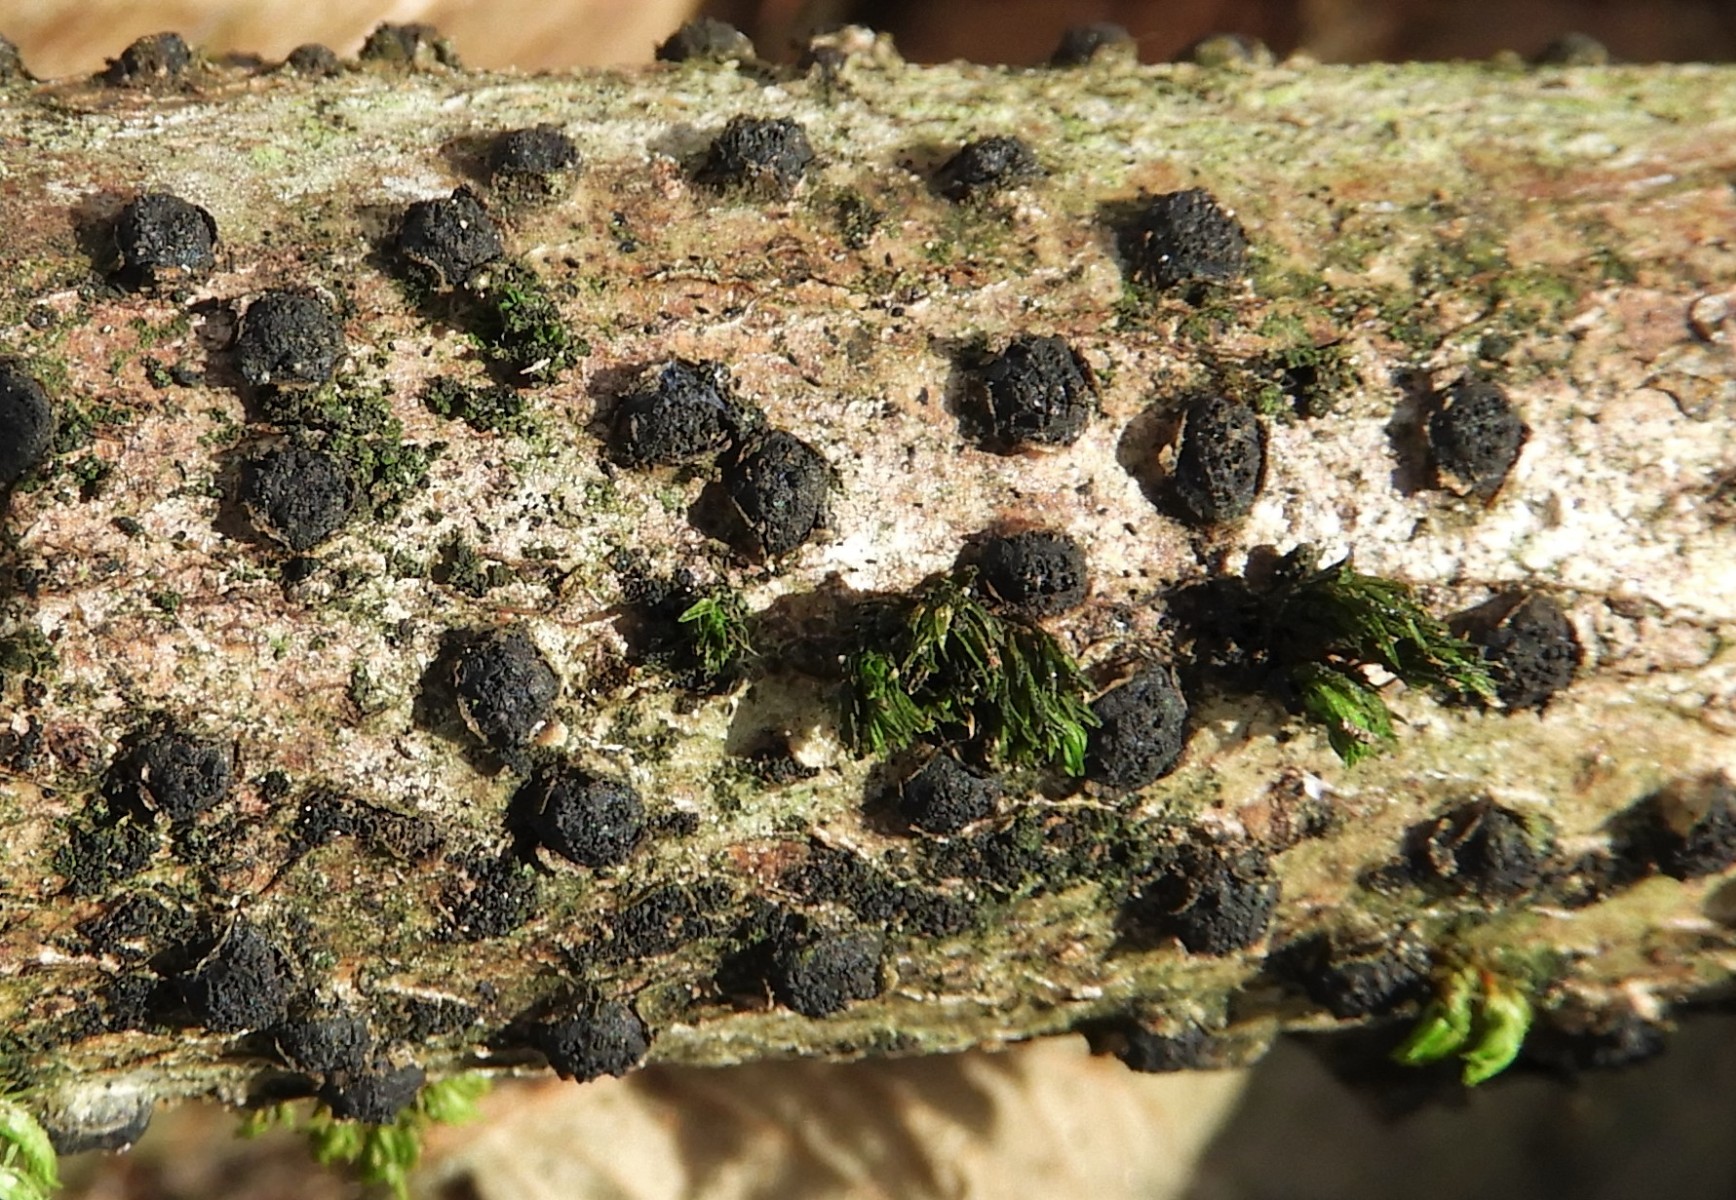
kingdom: Fungi
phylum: Ascomycota
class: Sordariomycetes
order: Xylariales
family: Diatrypaceae
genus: Diatrypella
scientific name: Diatrypella quercina
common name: ege-kulskorpe
